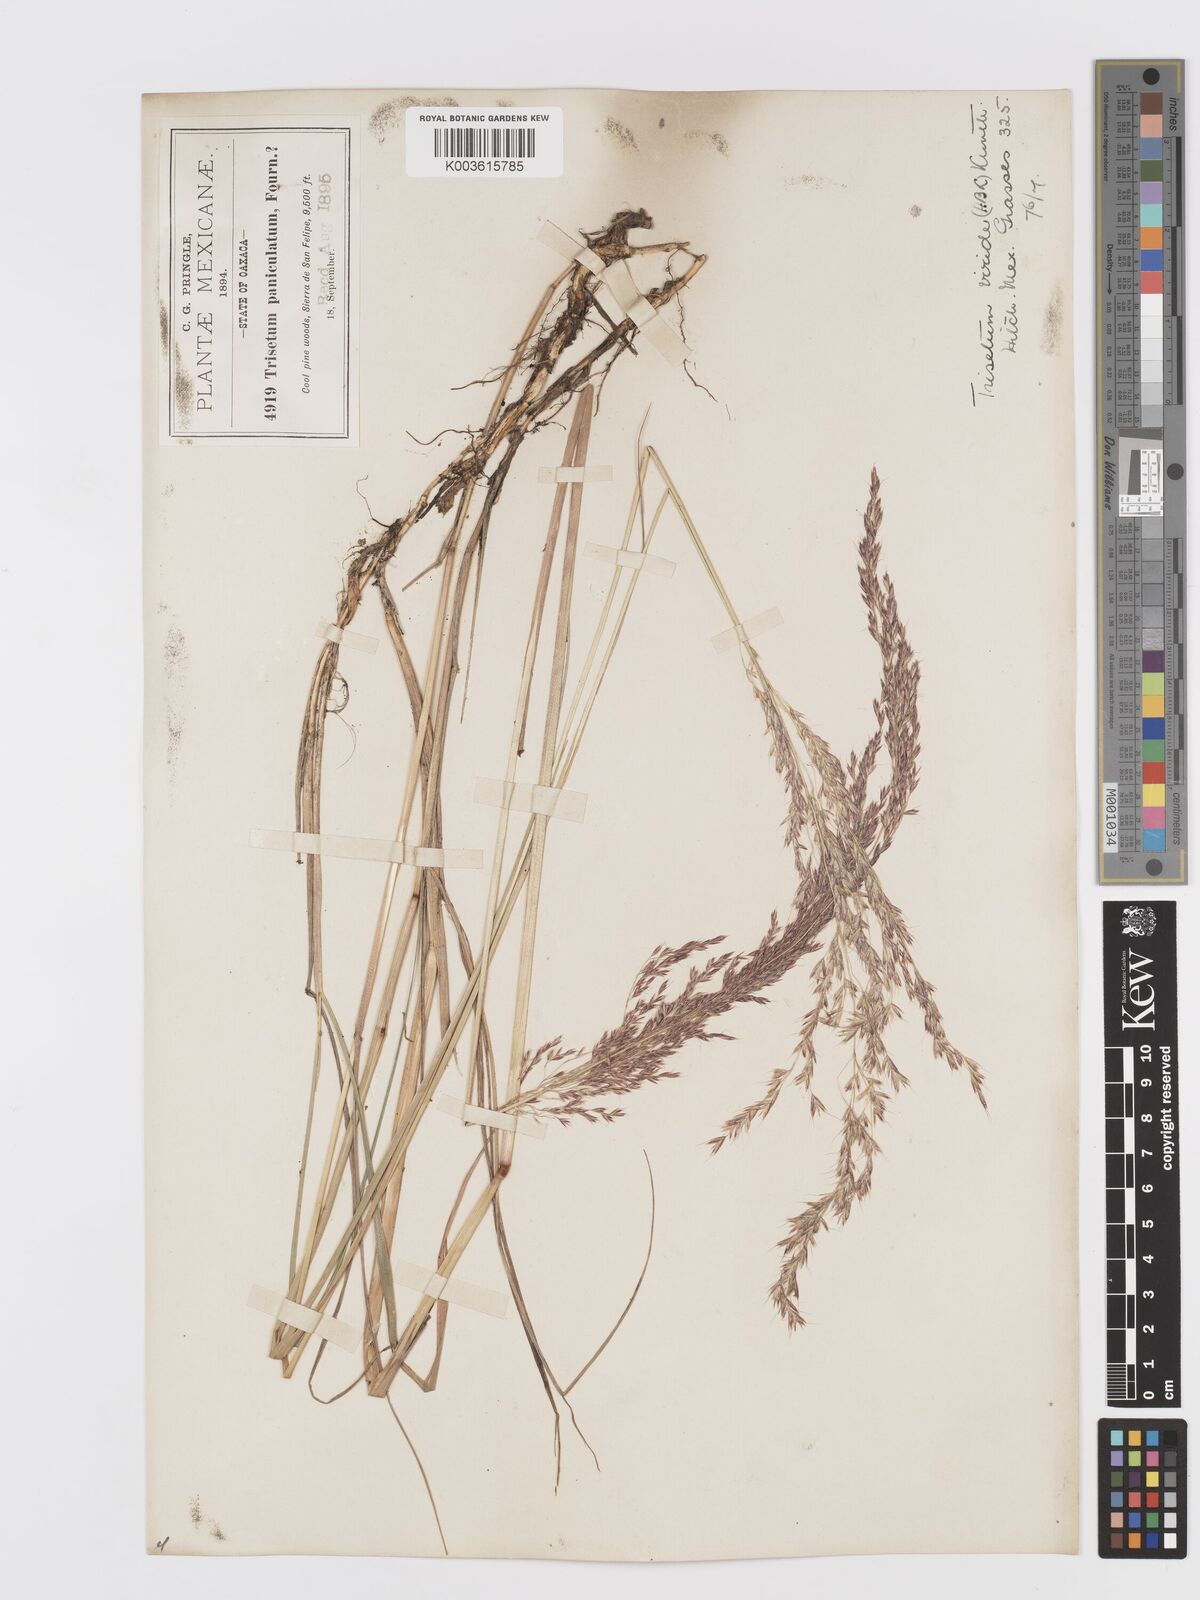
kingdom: Plantae
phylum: Tracheophyta
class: Liliopsida
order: Poales
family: Poaceae
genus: Peyritschia
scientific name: Peyritschia viridis
